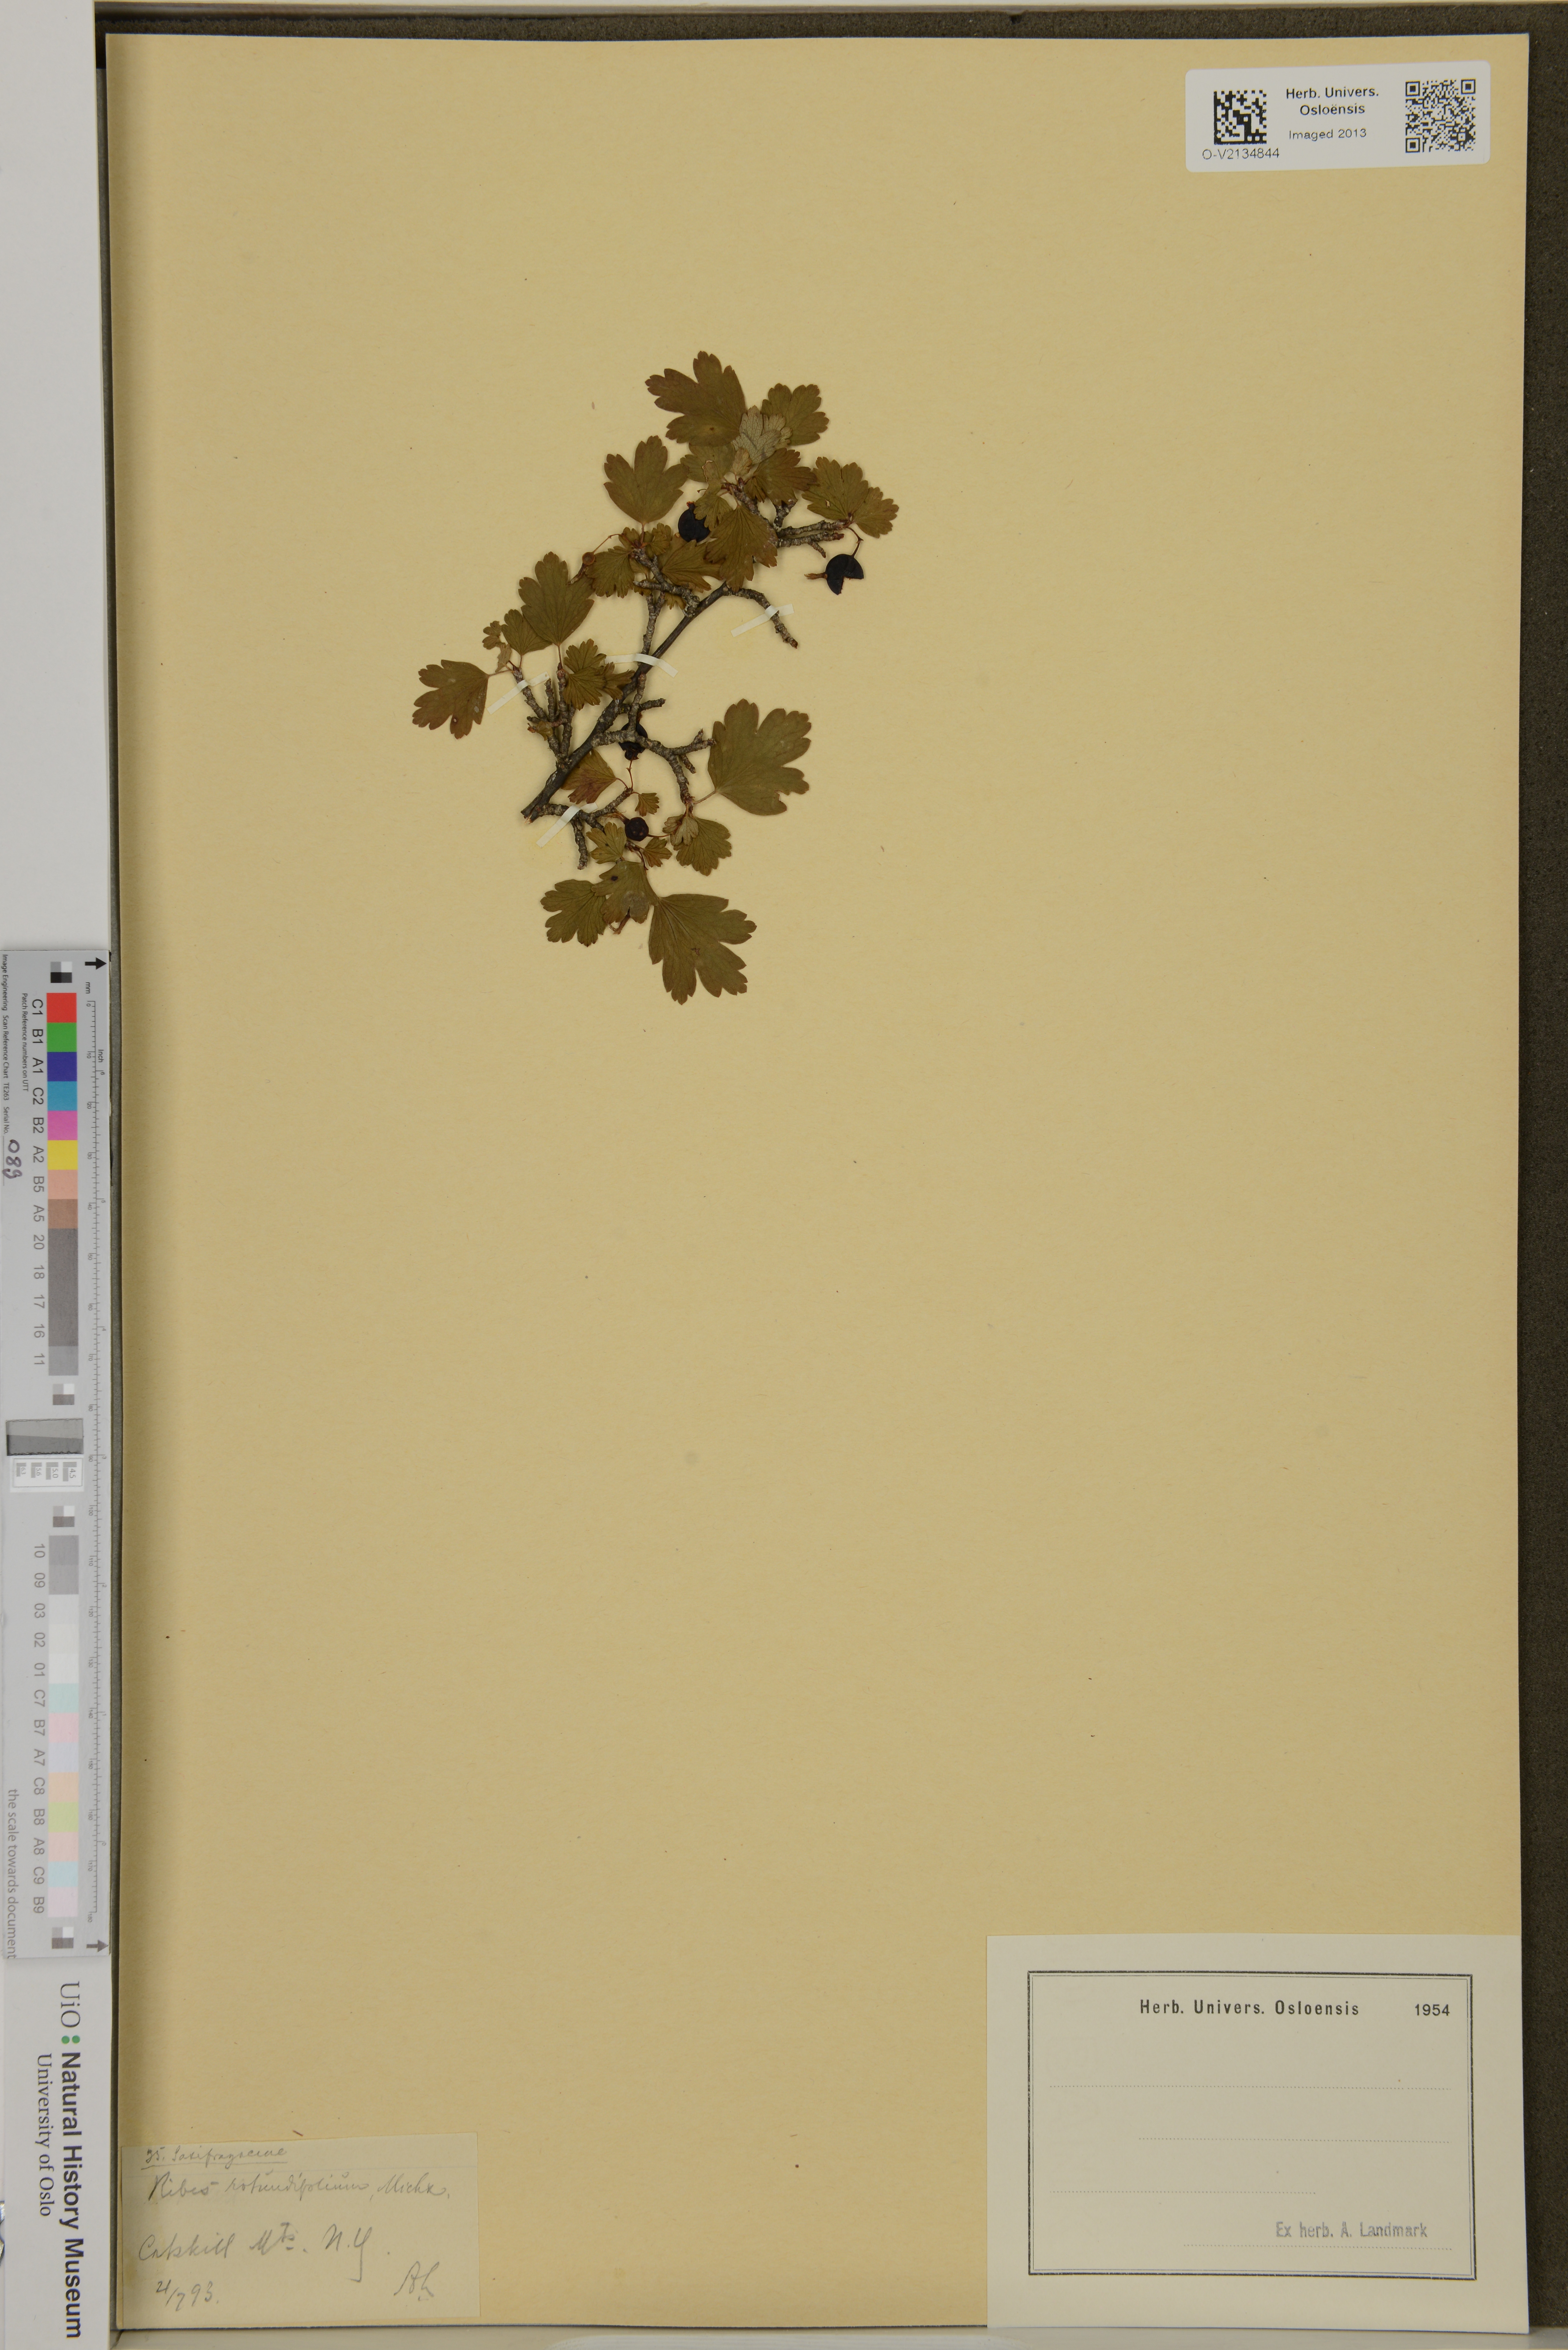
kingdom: Plantae
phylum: Tracheophyta
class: Magnoliopsida
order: Saxifragales
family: Grossulariaceae
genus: Ribes
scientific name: Ribes rotundifolium
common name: Appalachian gooseberry
